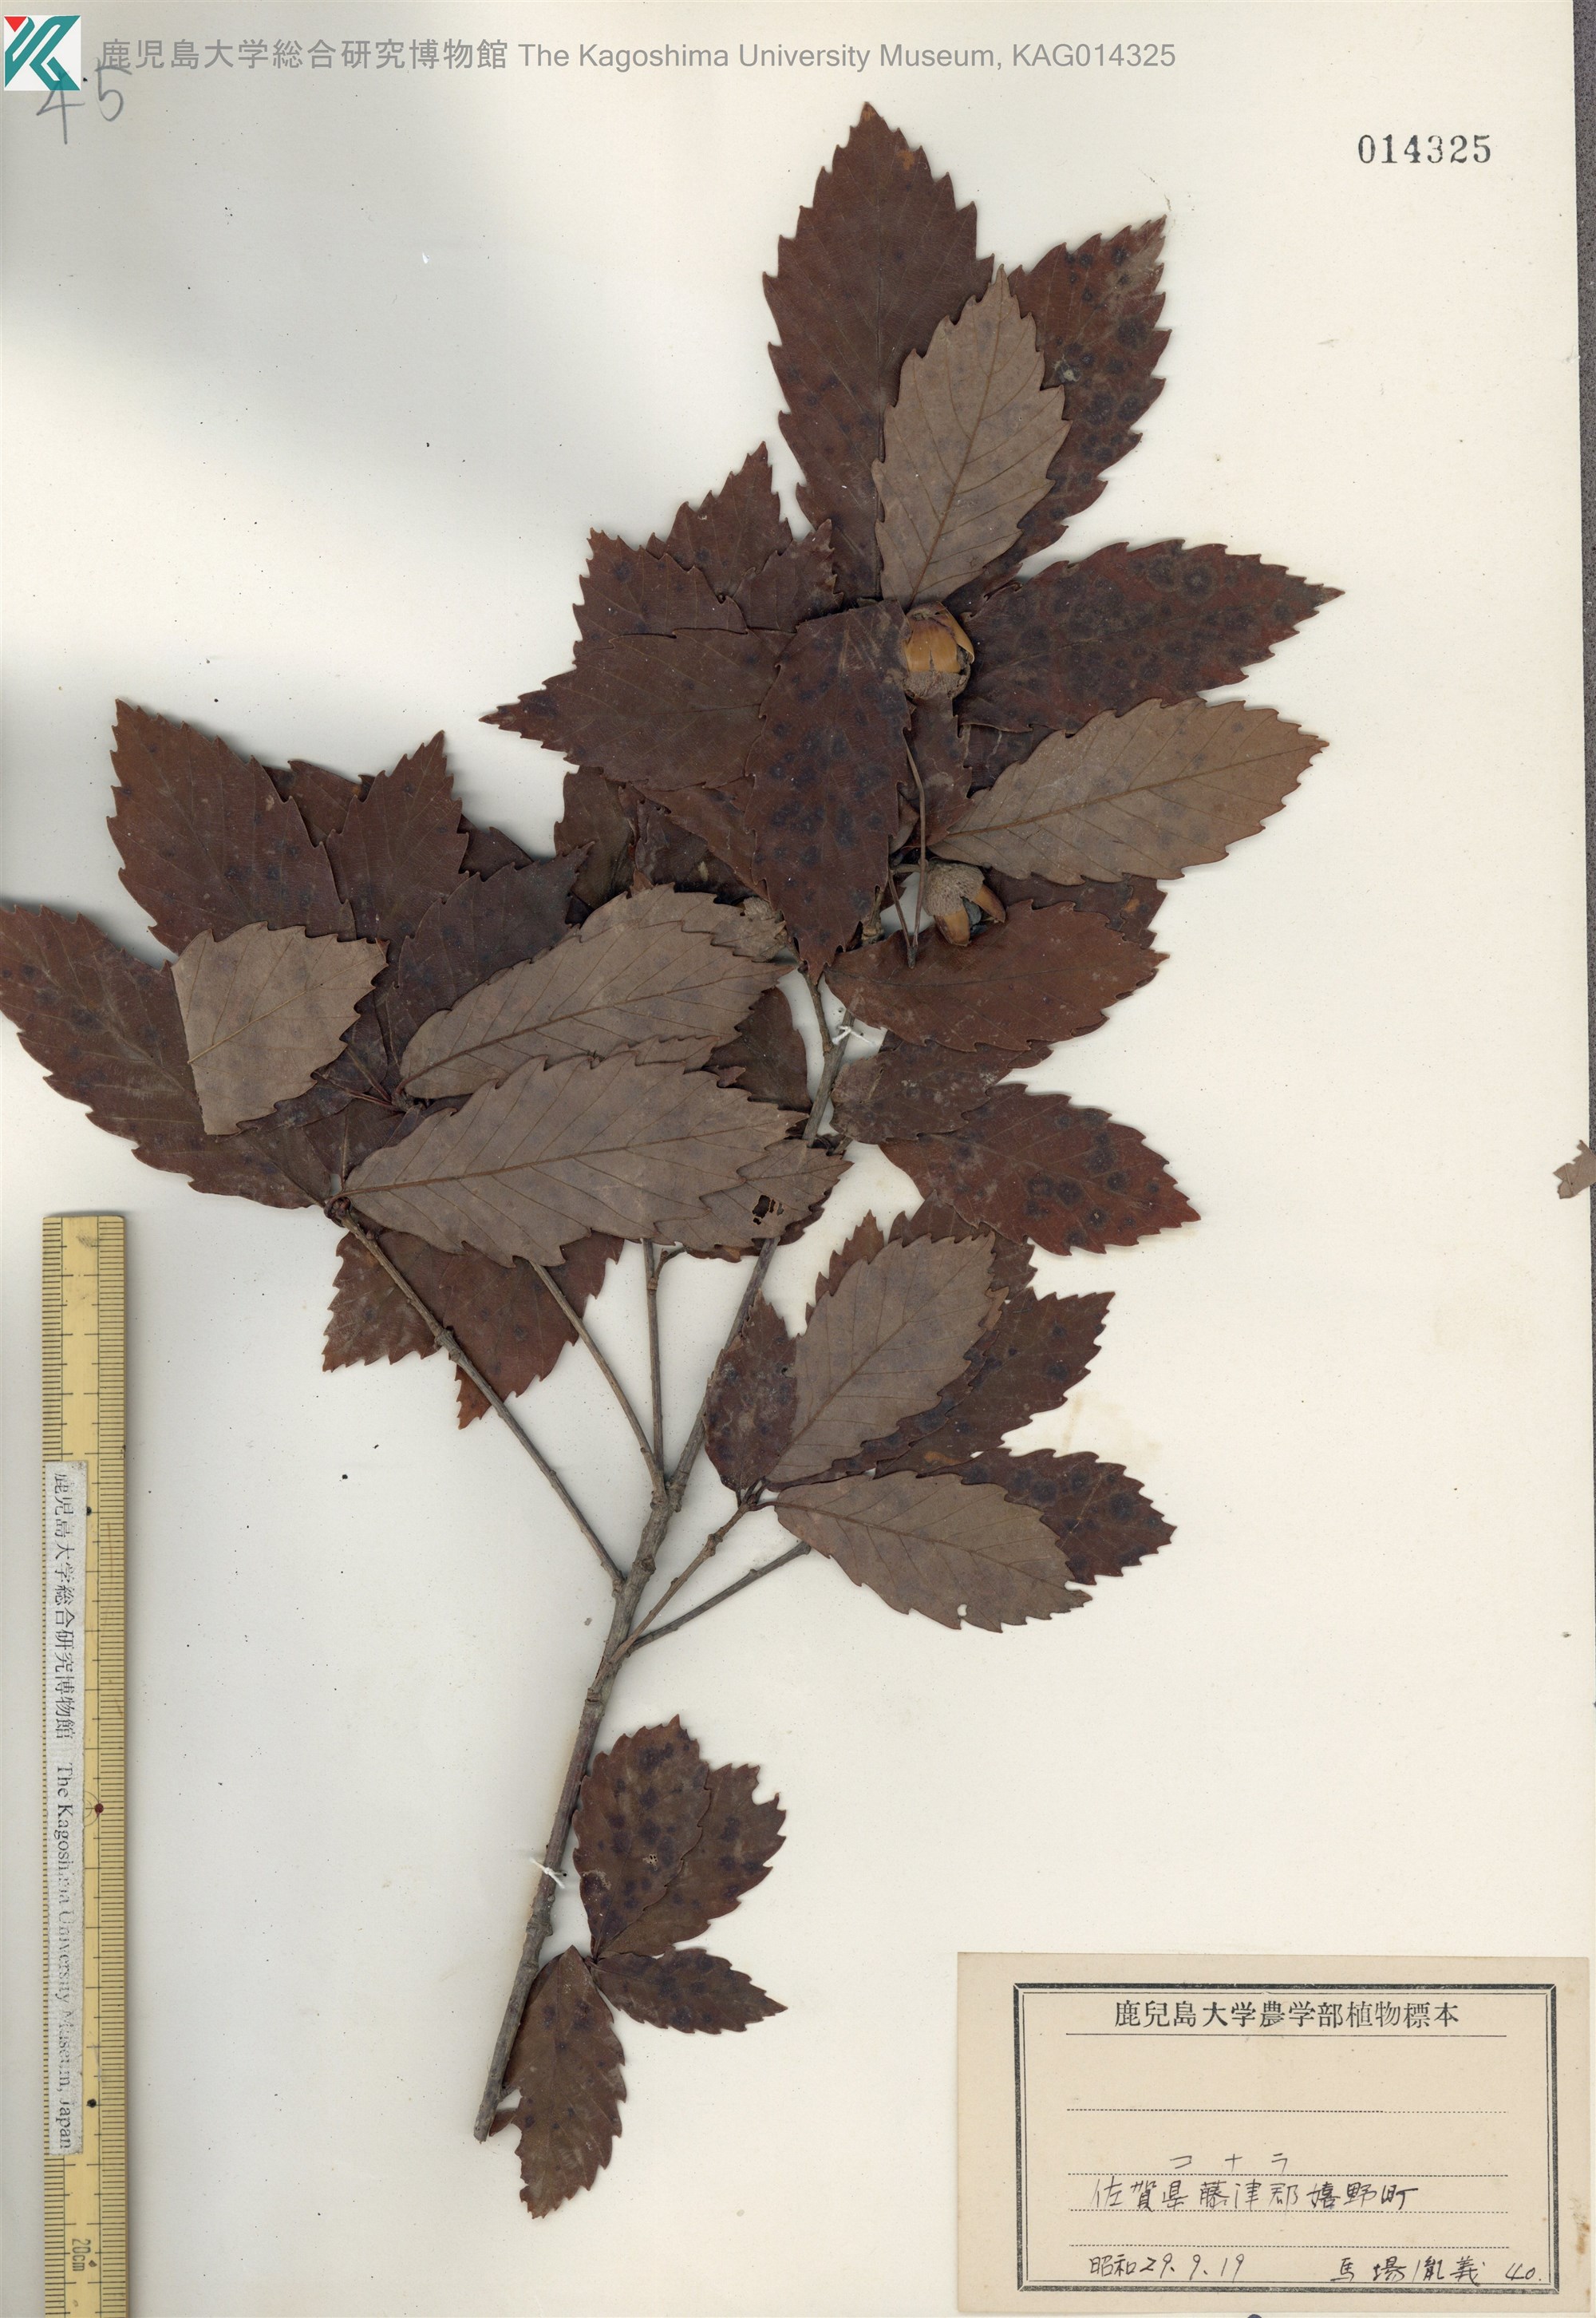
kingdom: Plantae
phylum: Tracheophyta
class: Magnoliopsida
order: Fagales
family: Fagaceae
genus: Quercus
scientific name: Quercus serrata
